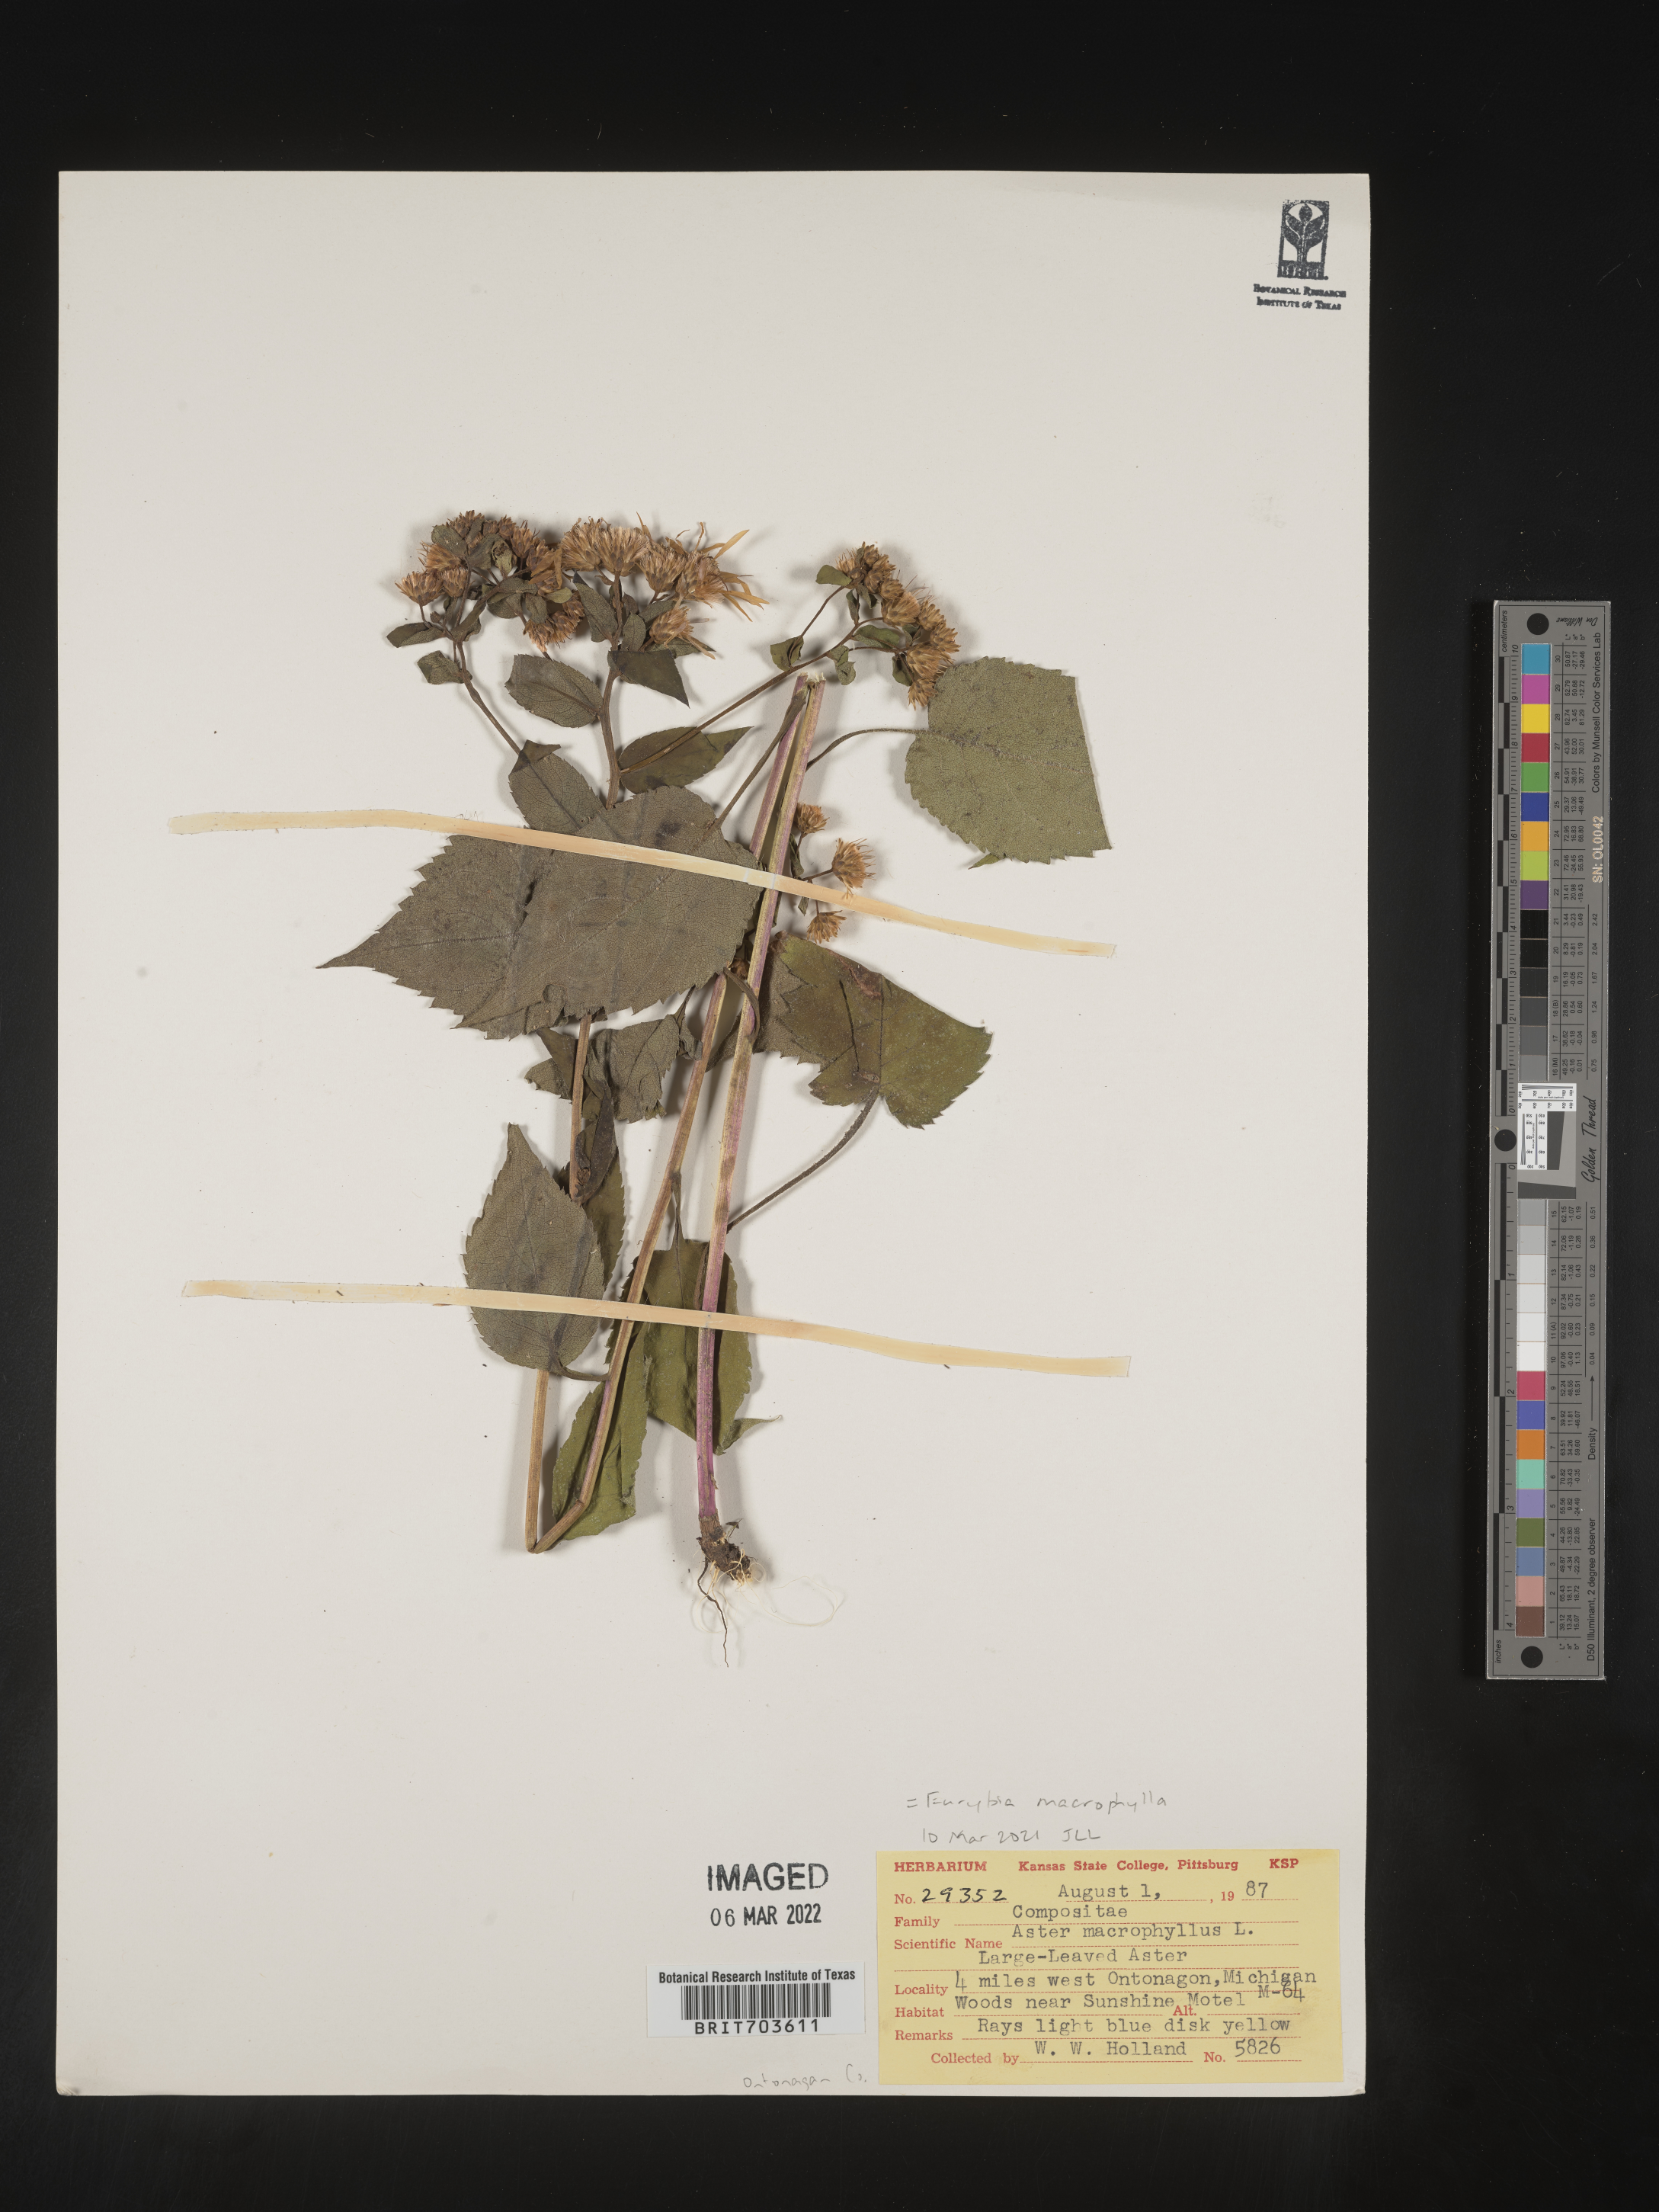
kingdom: Plantae
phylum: Tracheophyta
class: Magnoliopsida
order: Asterales
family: Asteraceae
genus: Eurybia
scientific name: Eurybia macrophylla
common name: Big-leaved aster
